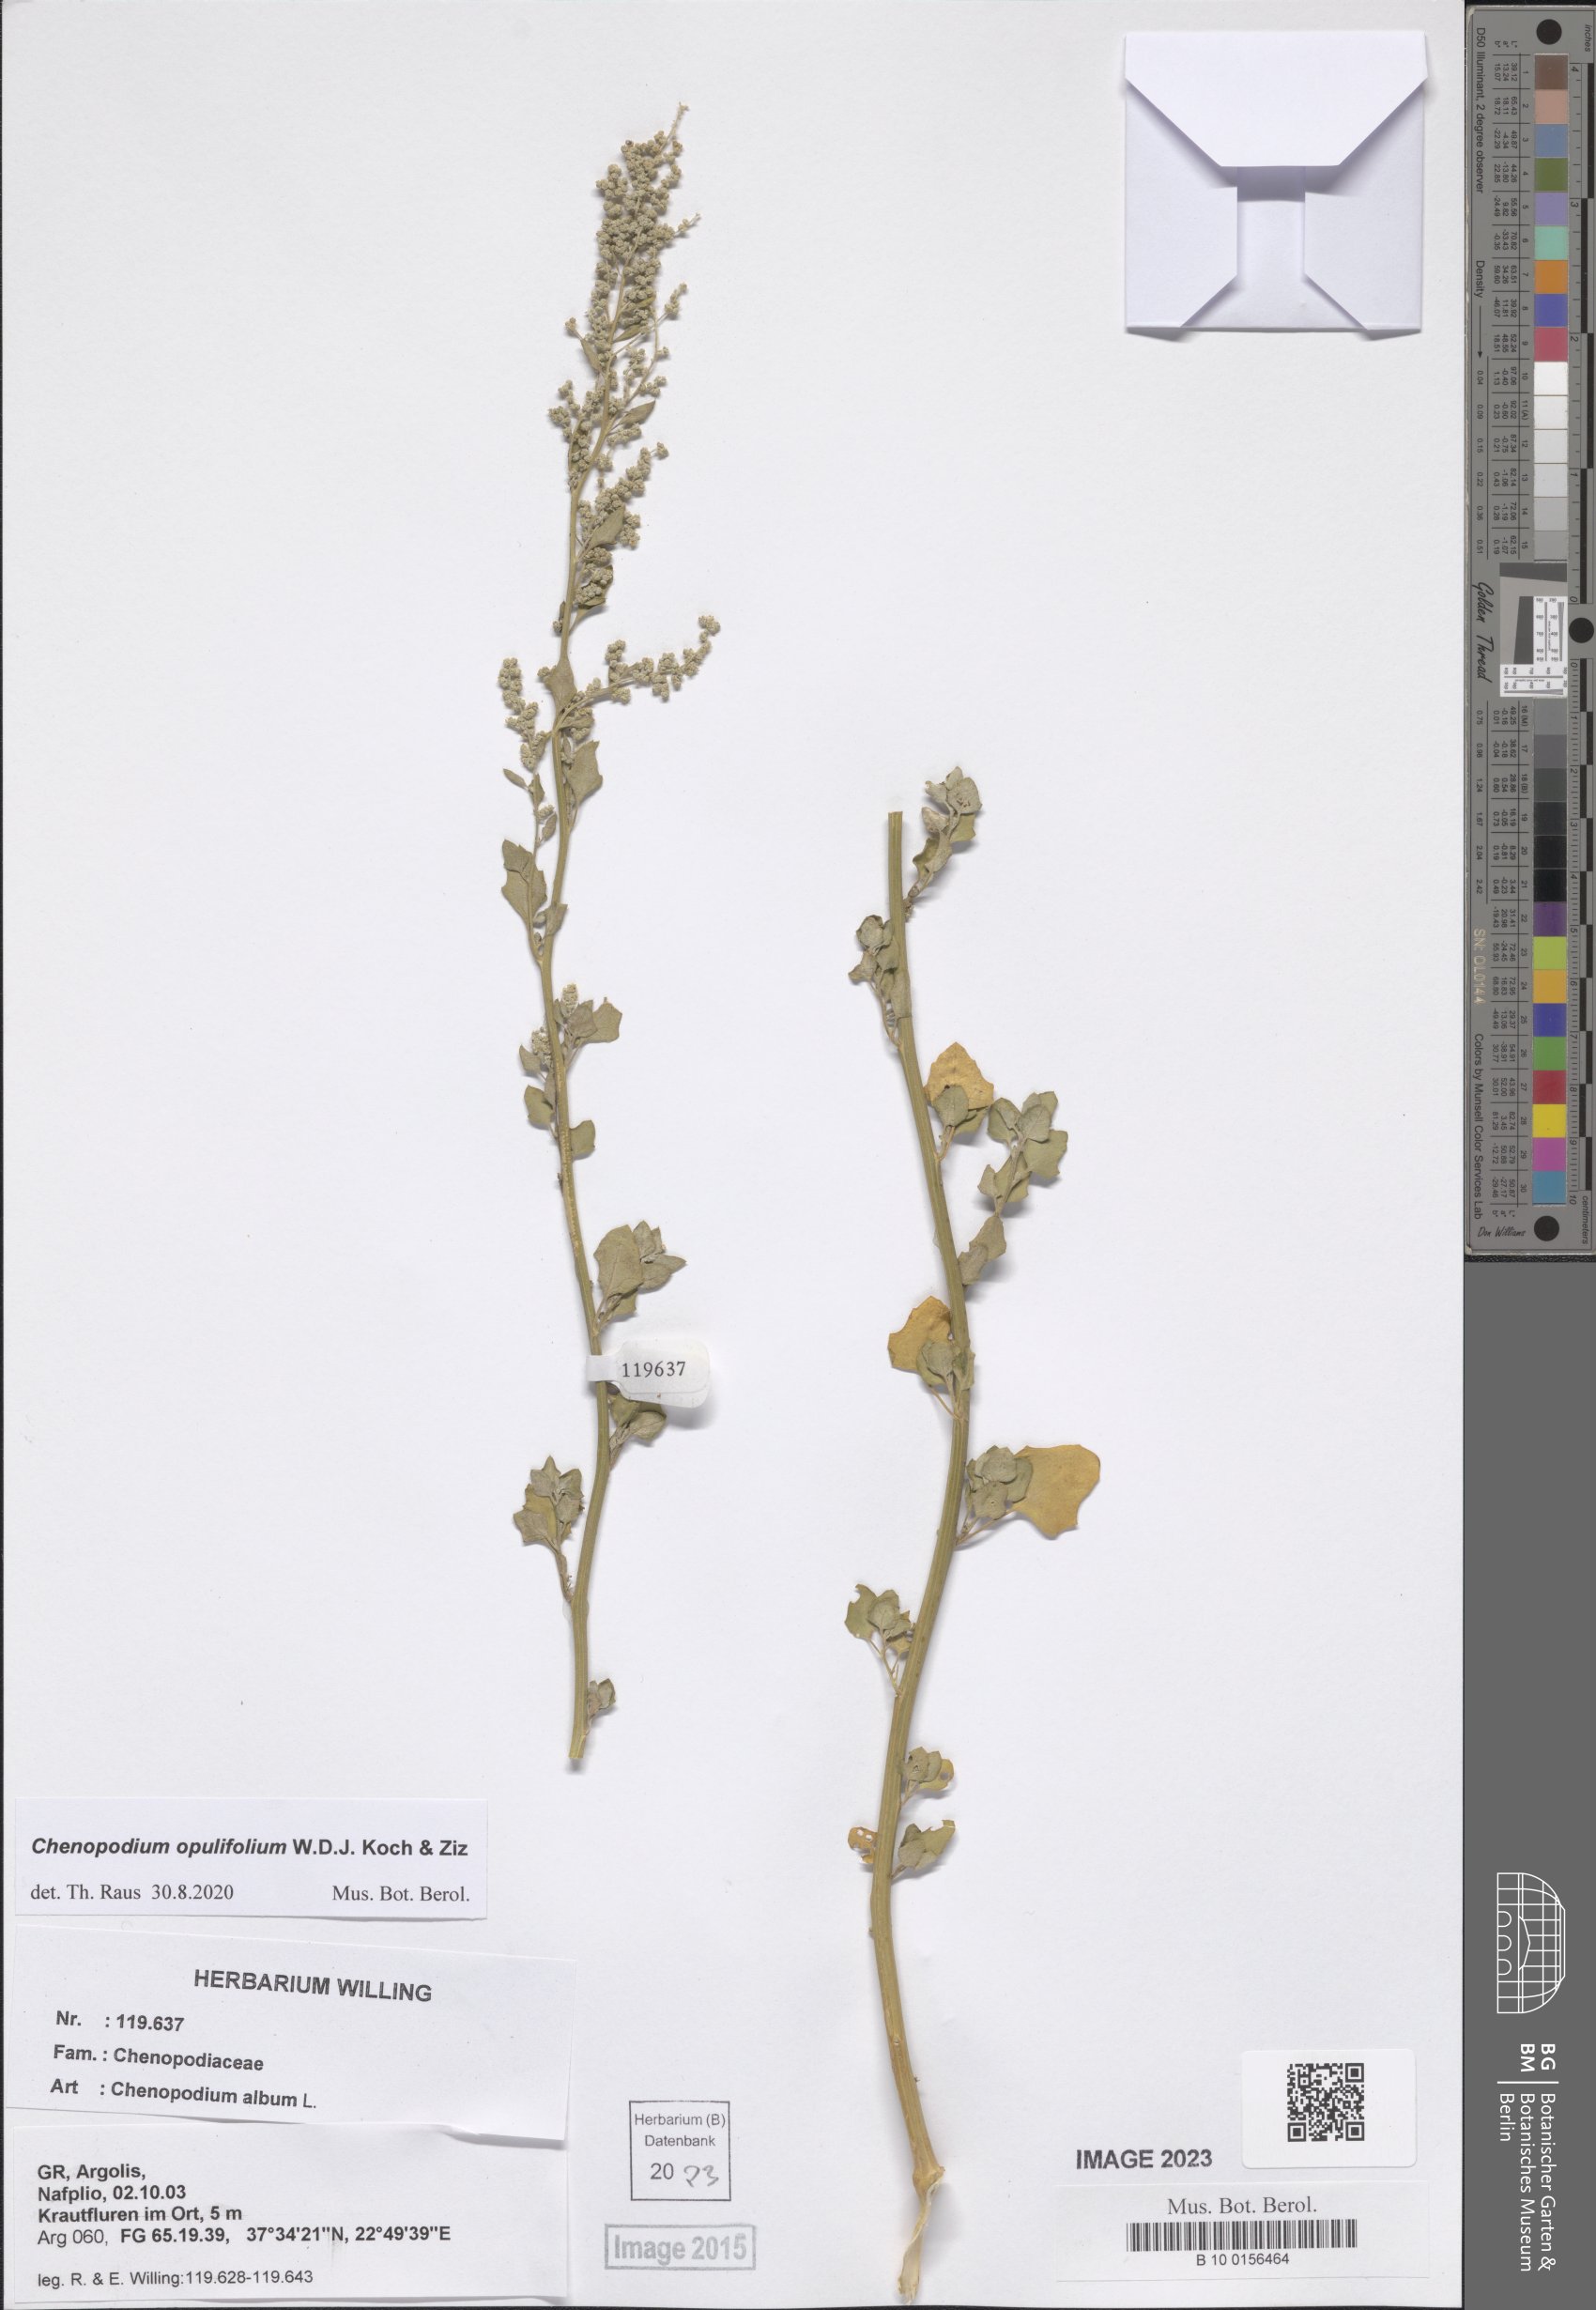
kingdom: Plantae
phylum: Tracheophyta
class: Magnoliopsida
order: Caryophyllales
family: Amaranthaceae
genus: Chenopodium
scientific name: Chenopodium opulifolium
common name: Grey goosefoot
